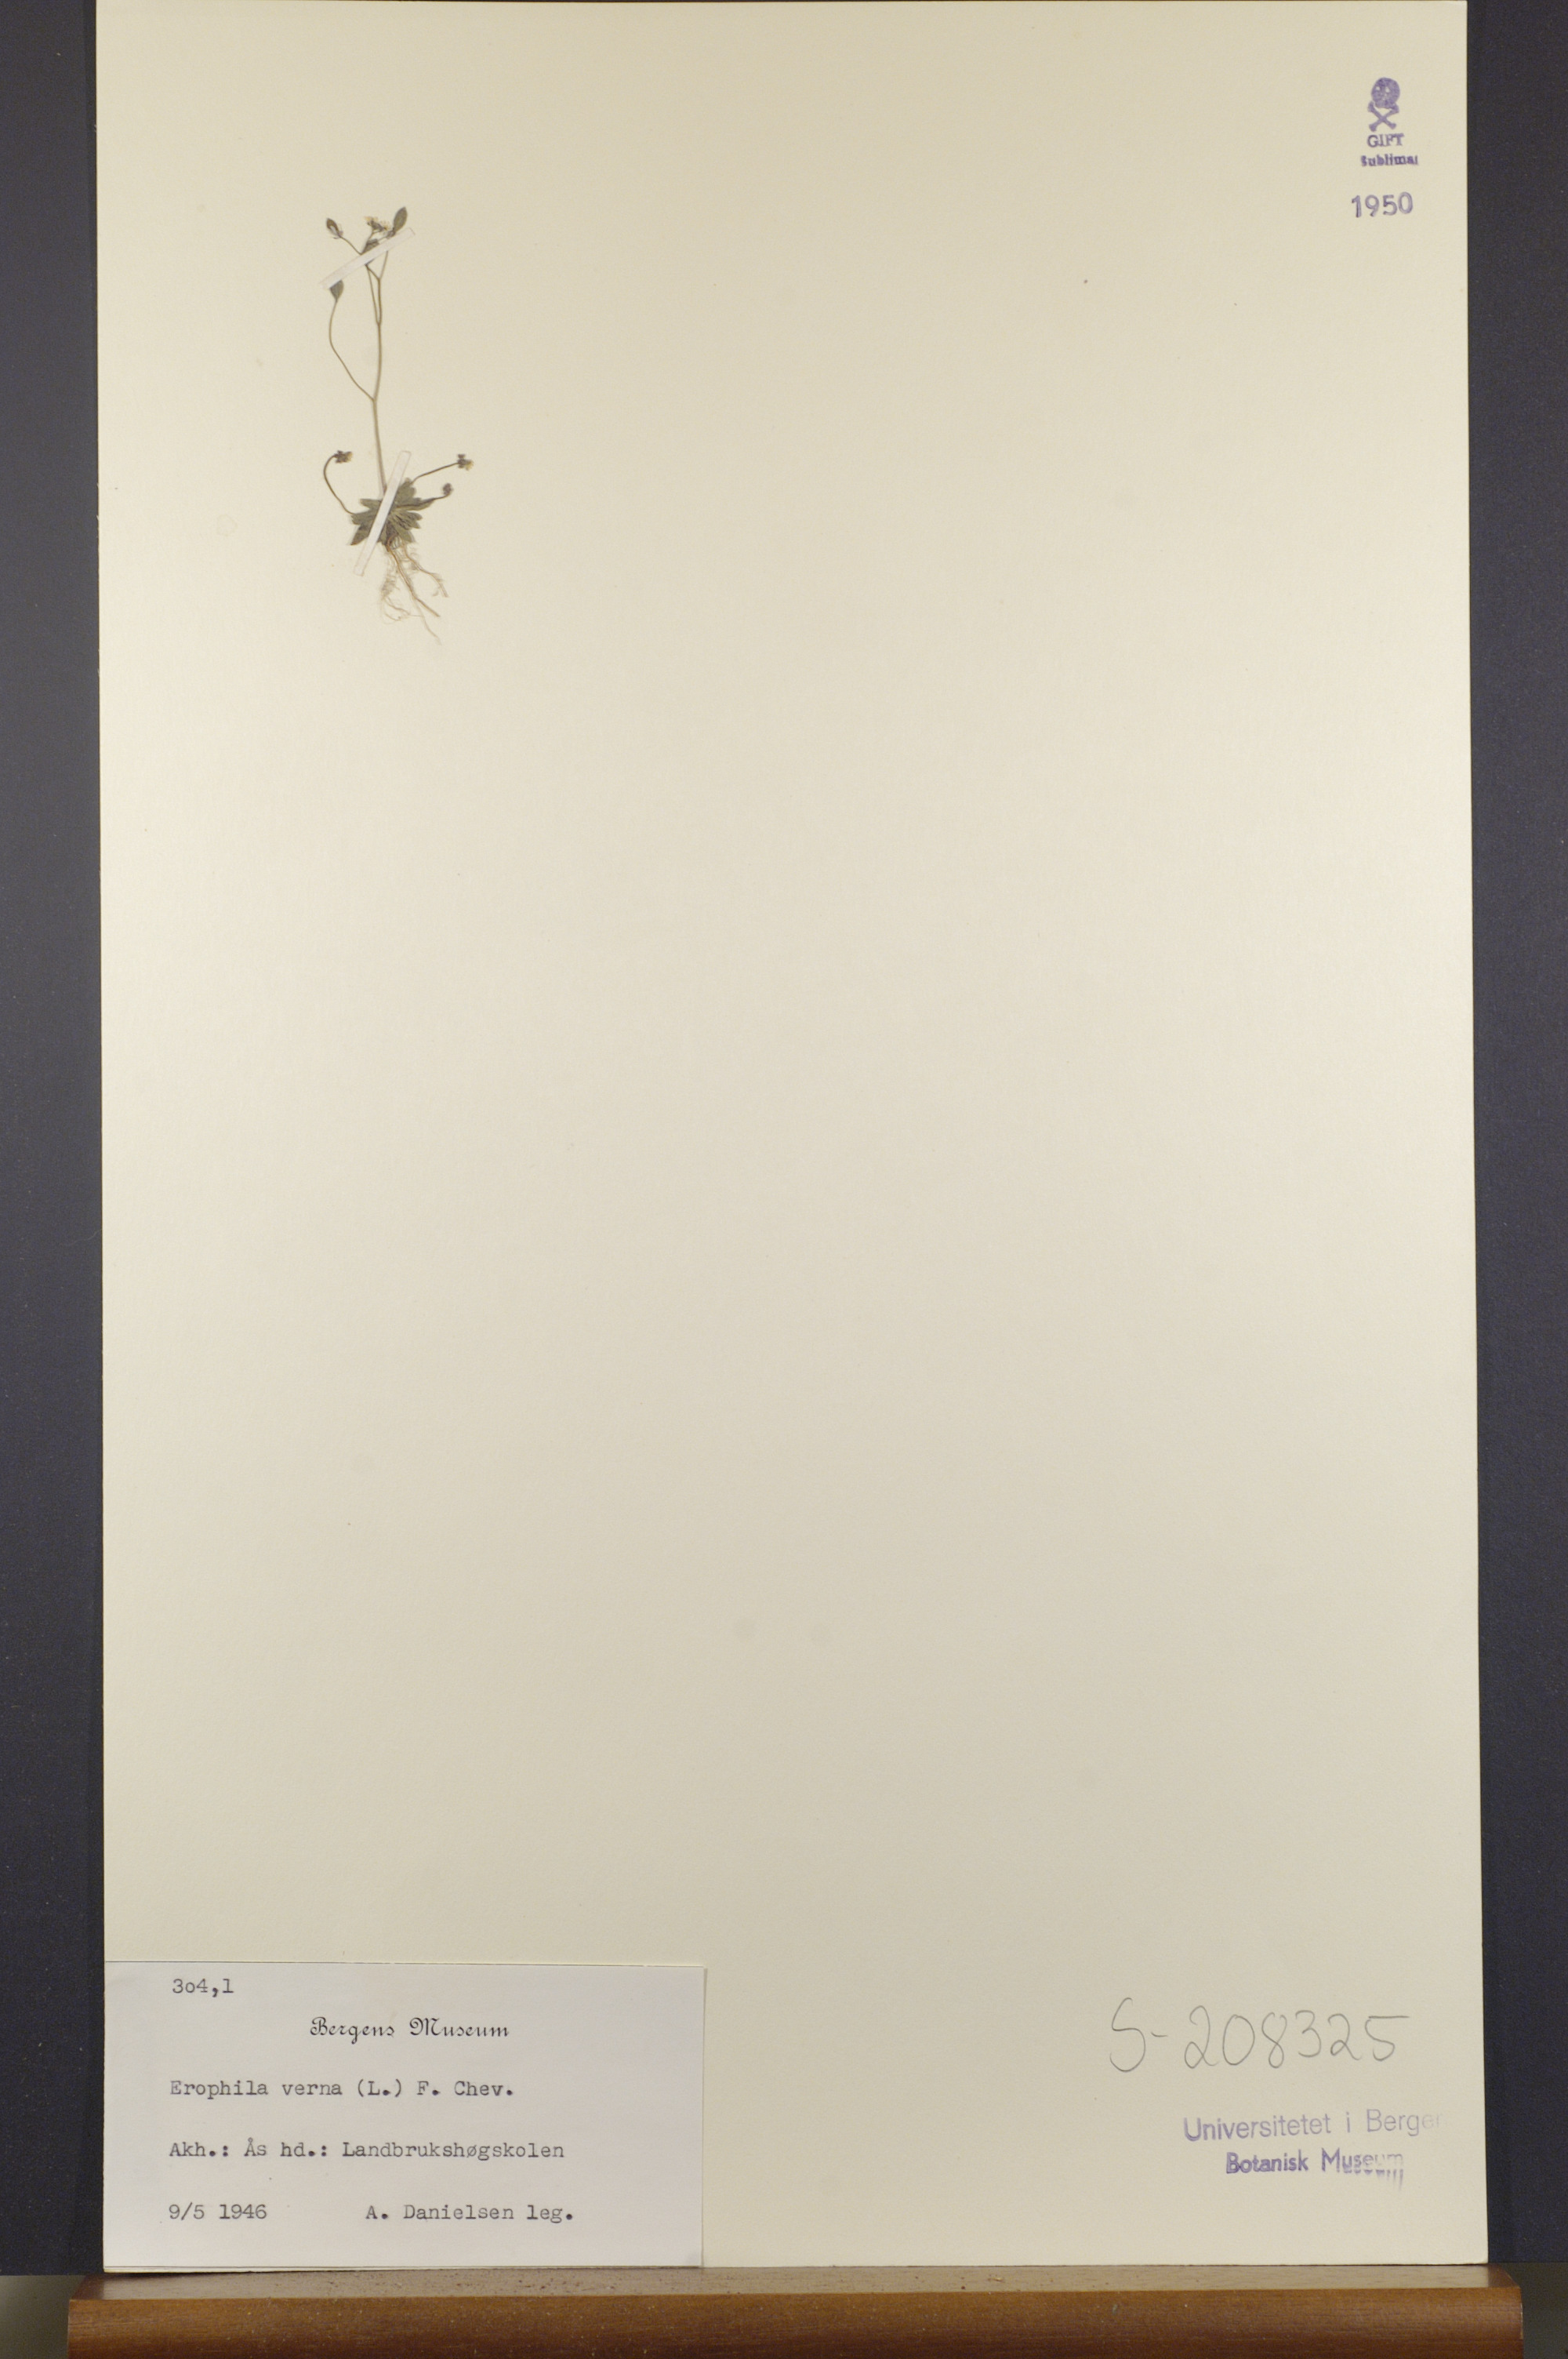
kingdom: Plantae
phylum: Tracheophyta
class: Magnoliopsida
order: Brassicales
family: Brassicaceae
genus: Draba
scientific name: Draba verna
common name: Spring draba
